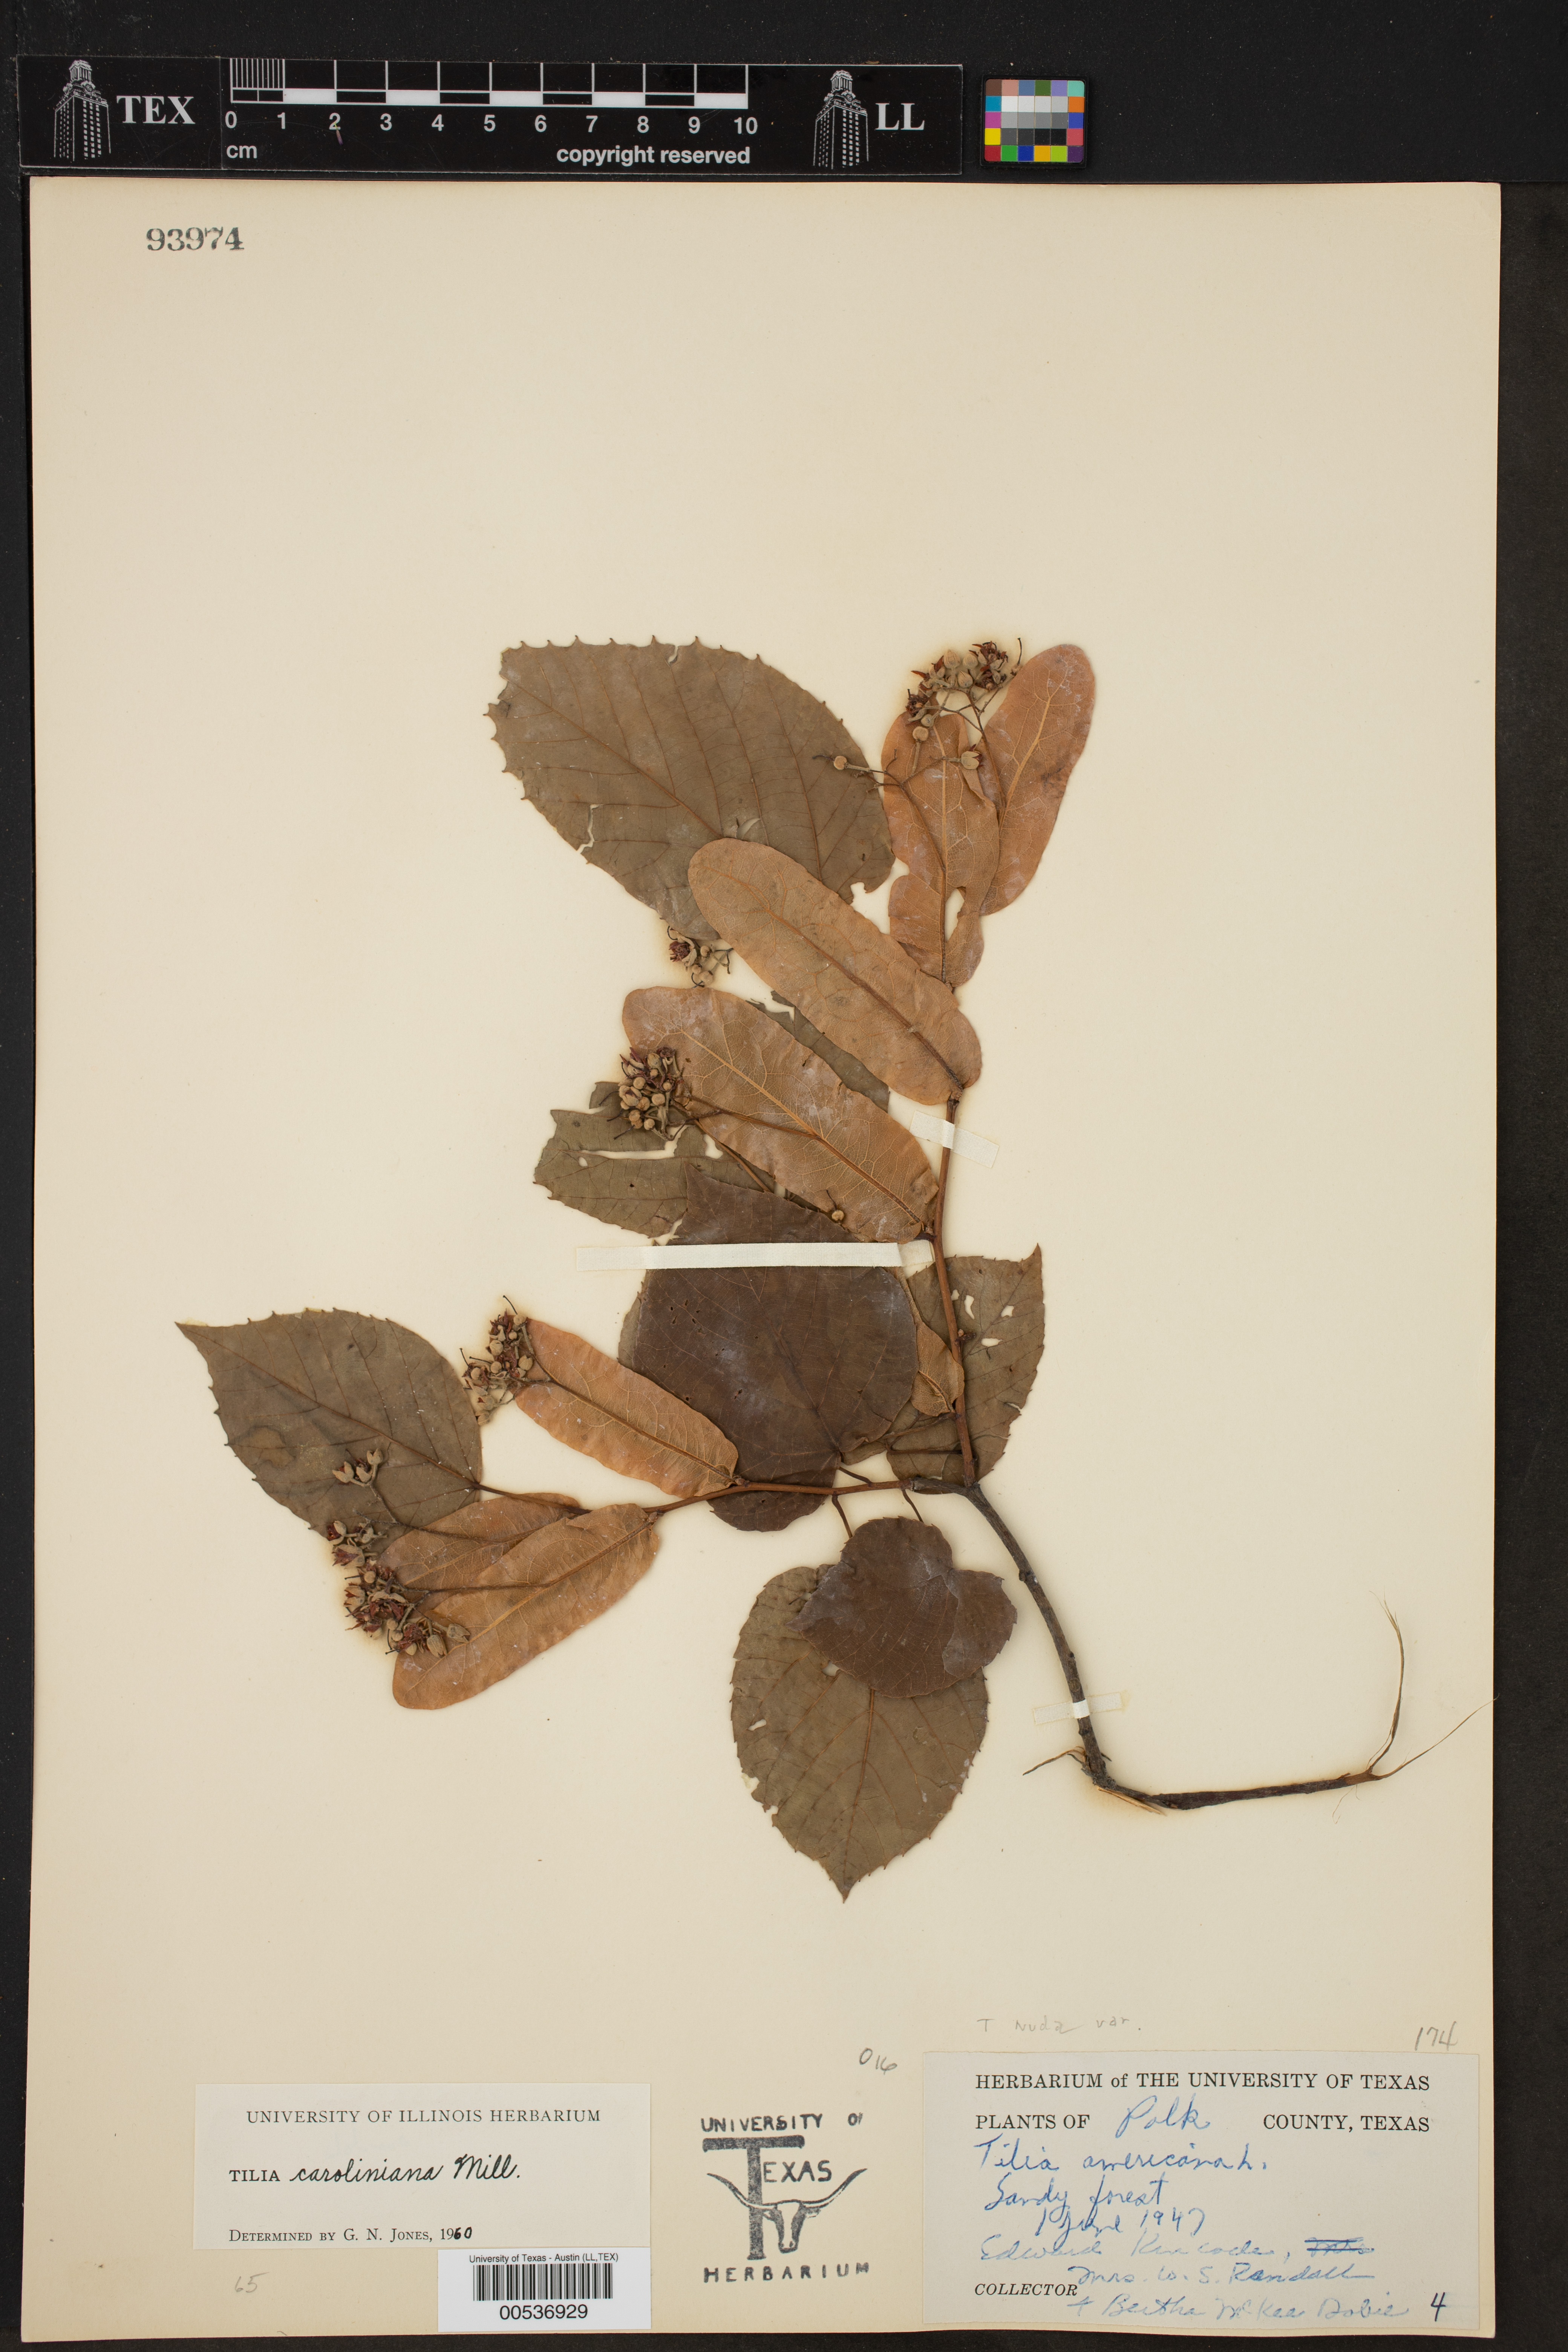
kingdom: Plantae
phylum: Tracheophyta
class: Magnoliopsida
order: Malvales
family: Malvaceae
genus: Tilia
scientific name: Tilia americana
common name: Basswood
